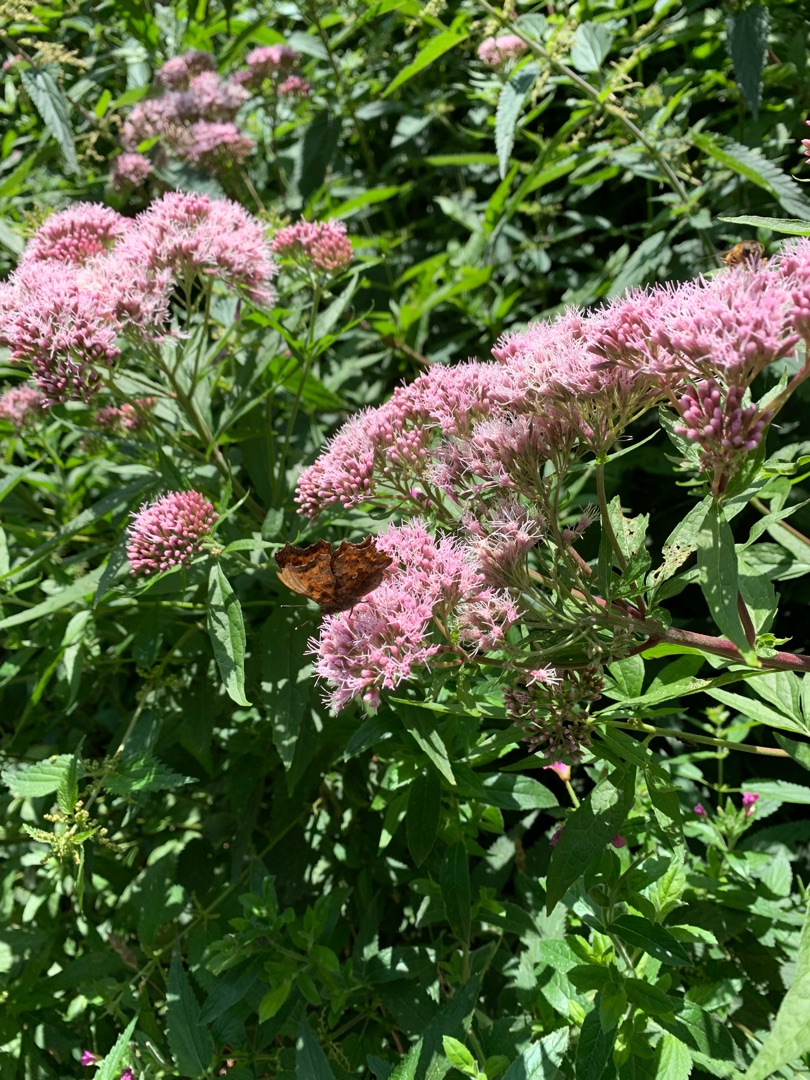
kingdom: Animalia
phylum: Arthropoda
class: Insecta
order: Lepidoptera
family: Nymphalidae
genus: Polygonia
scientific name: Polygonia c-album
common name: Det hvide C
